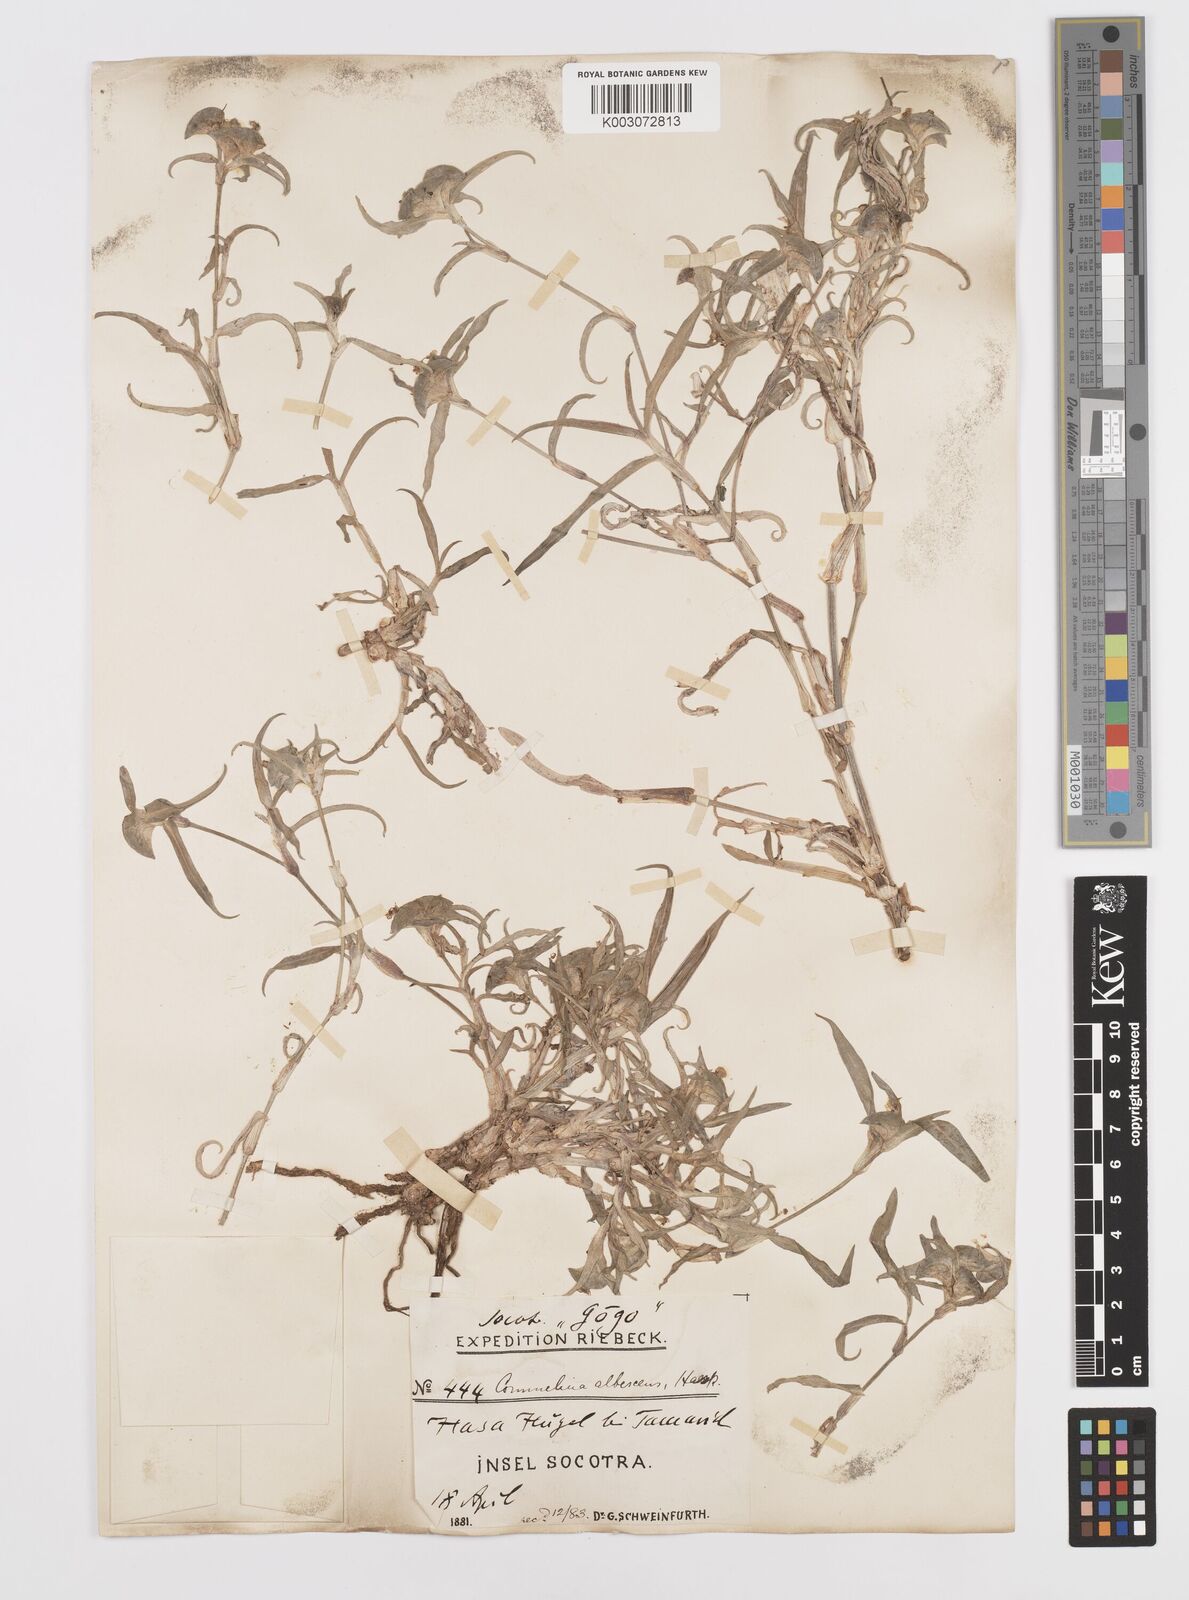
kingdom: Plantae
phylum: Tracheophyta
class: Liliopsida
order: Commelinales
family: Commelinaceae
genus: Commelina
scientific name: Commelina albescens
